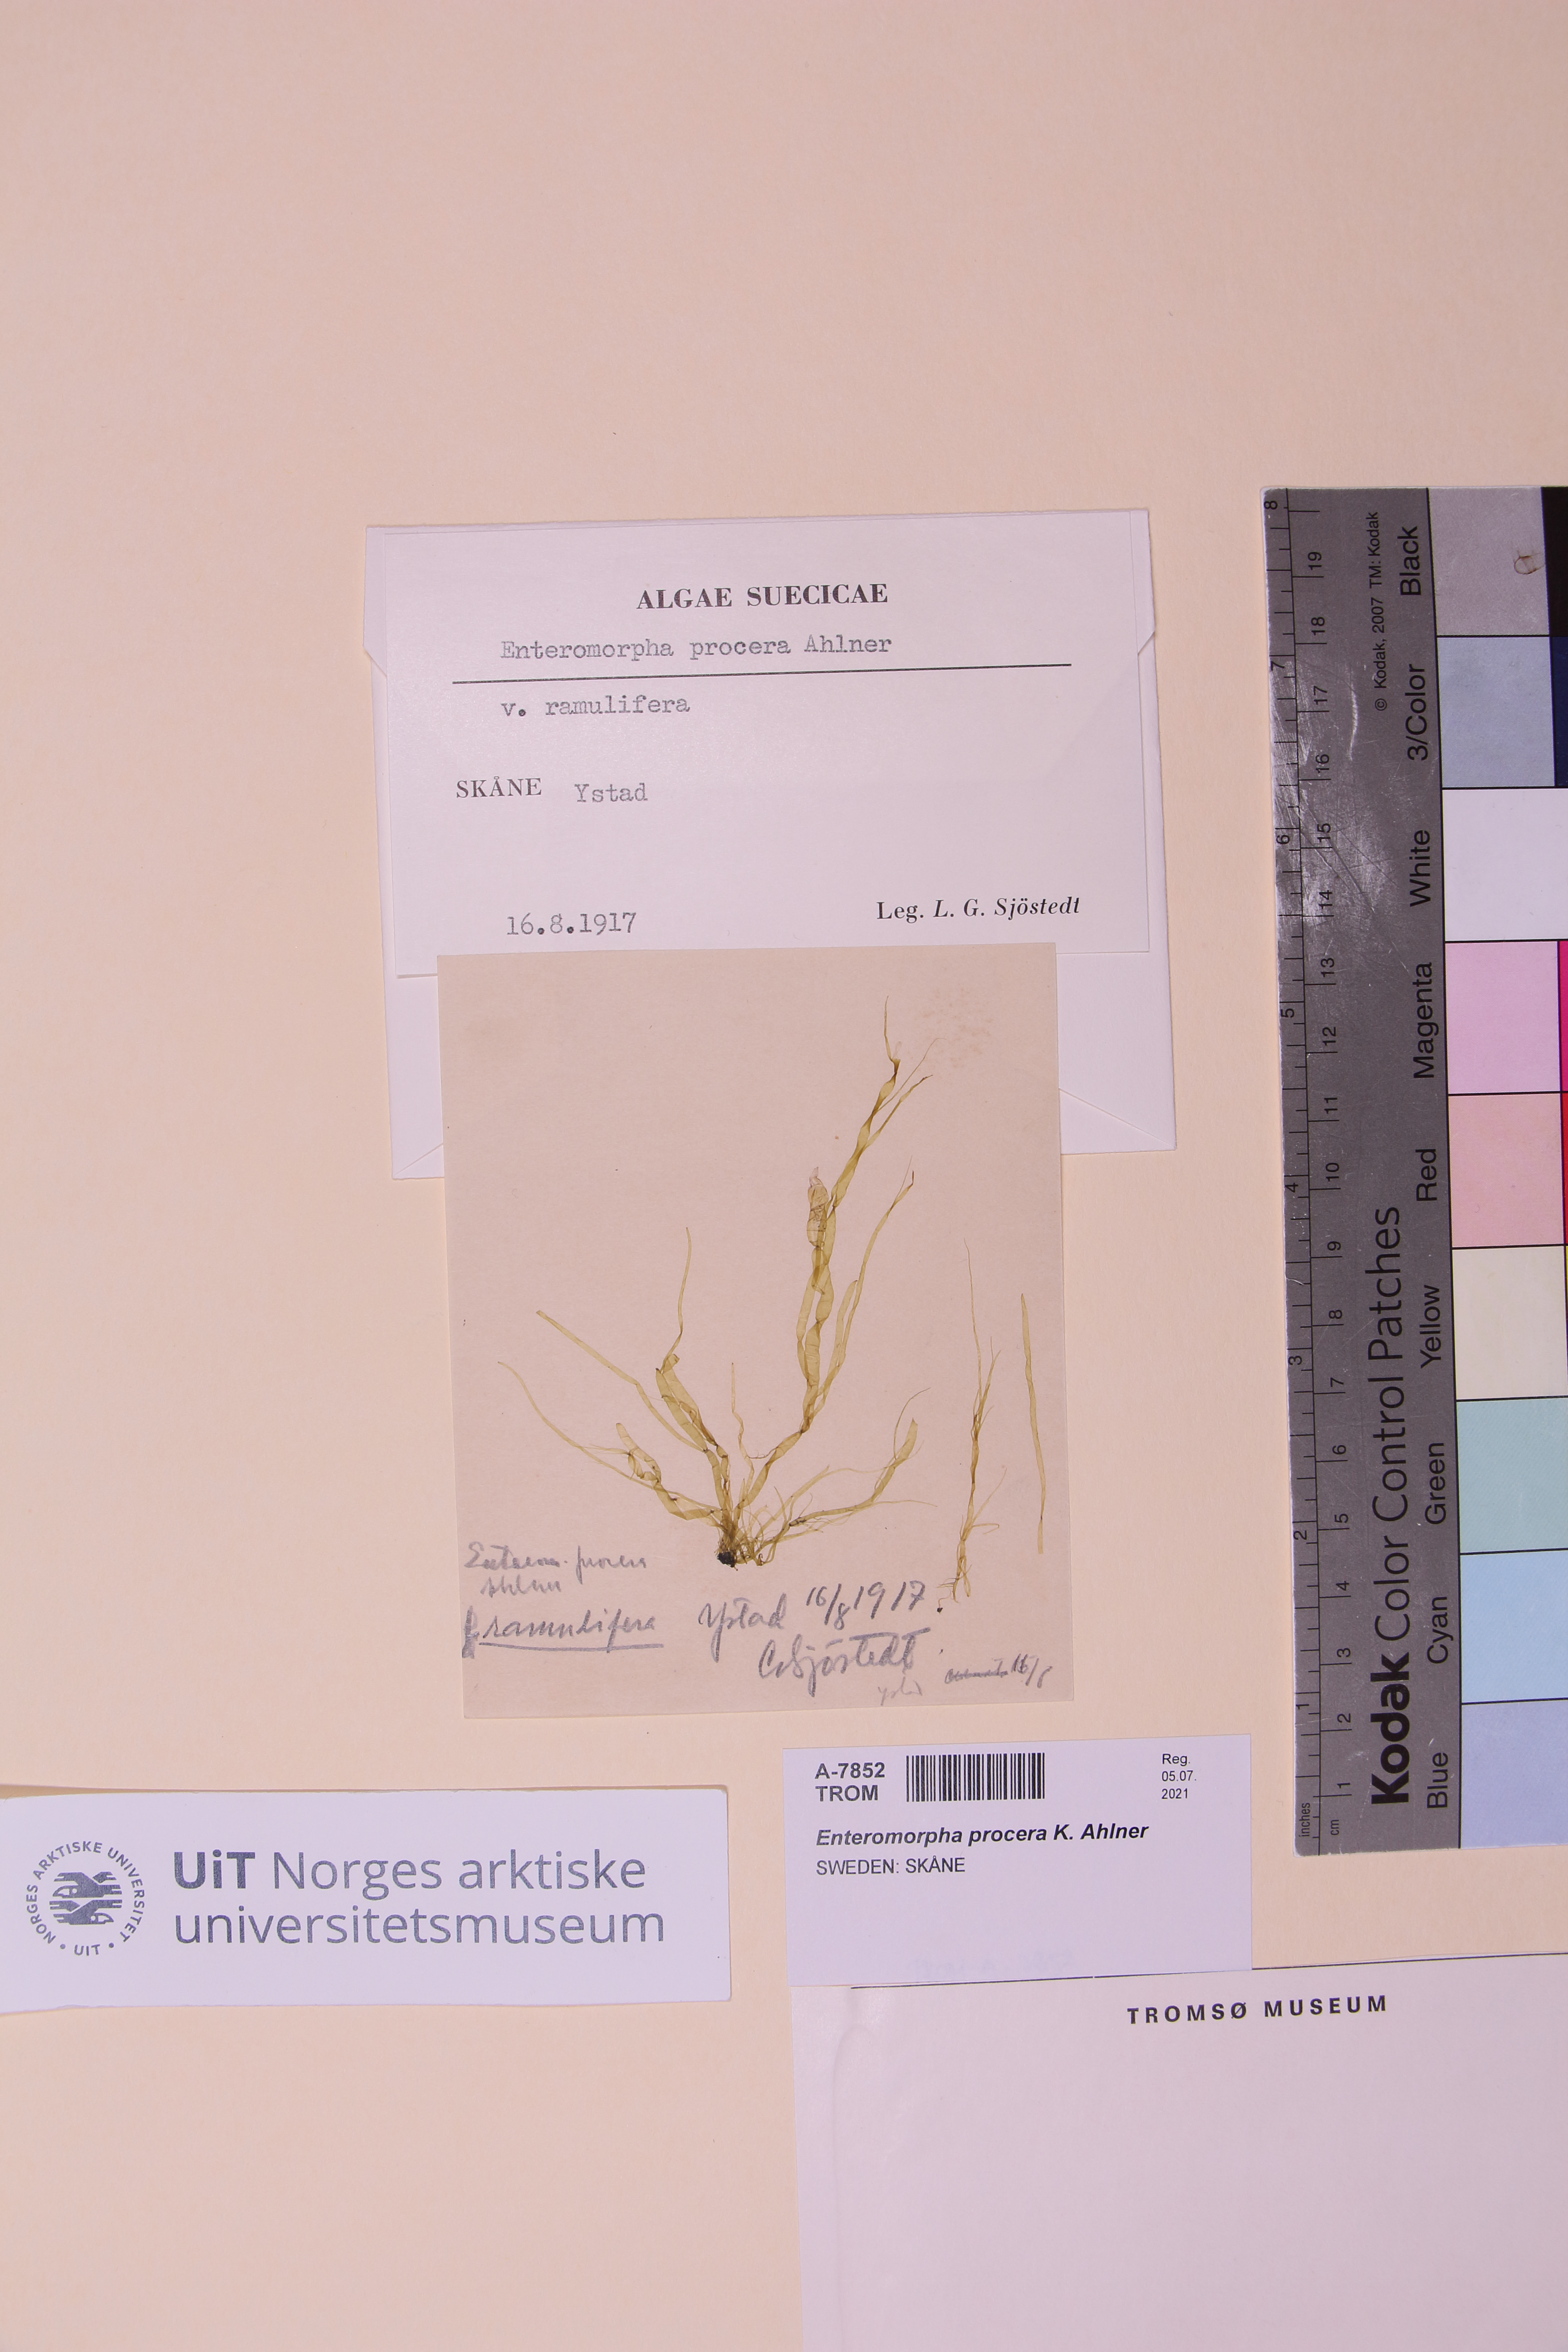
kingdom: Plantae
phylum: Chlorophyta
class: Ulvophyceae
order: Ulvales
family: Ulvaceae
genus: Ulva
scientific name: Ulva prolifera
